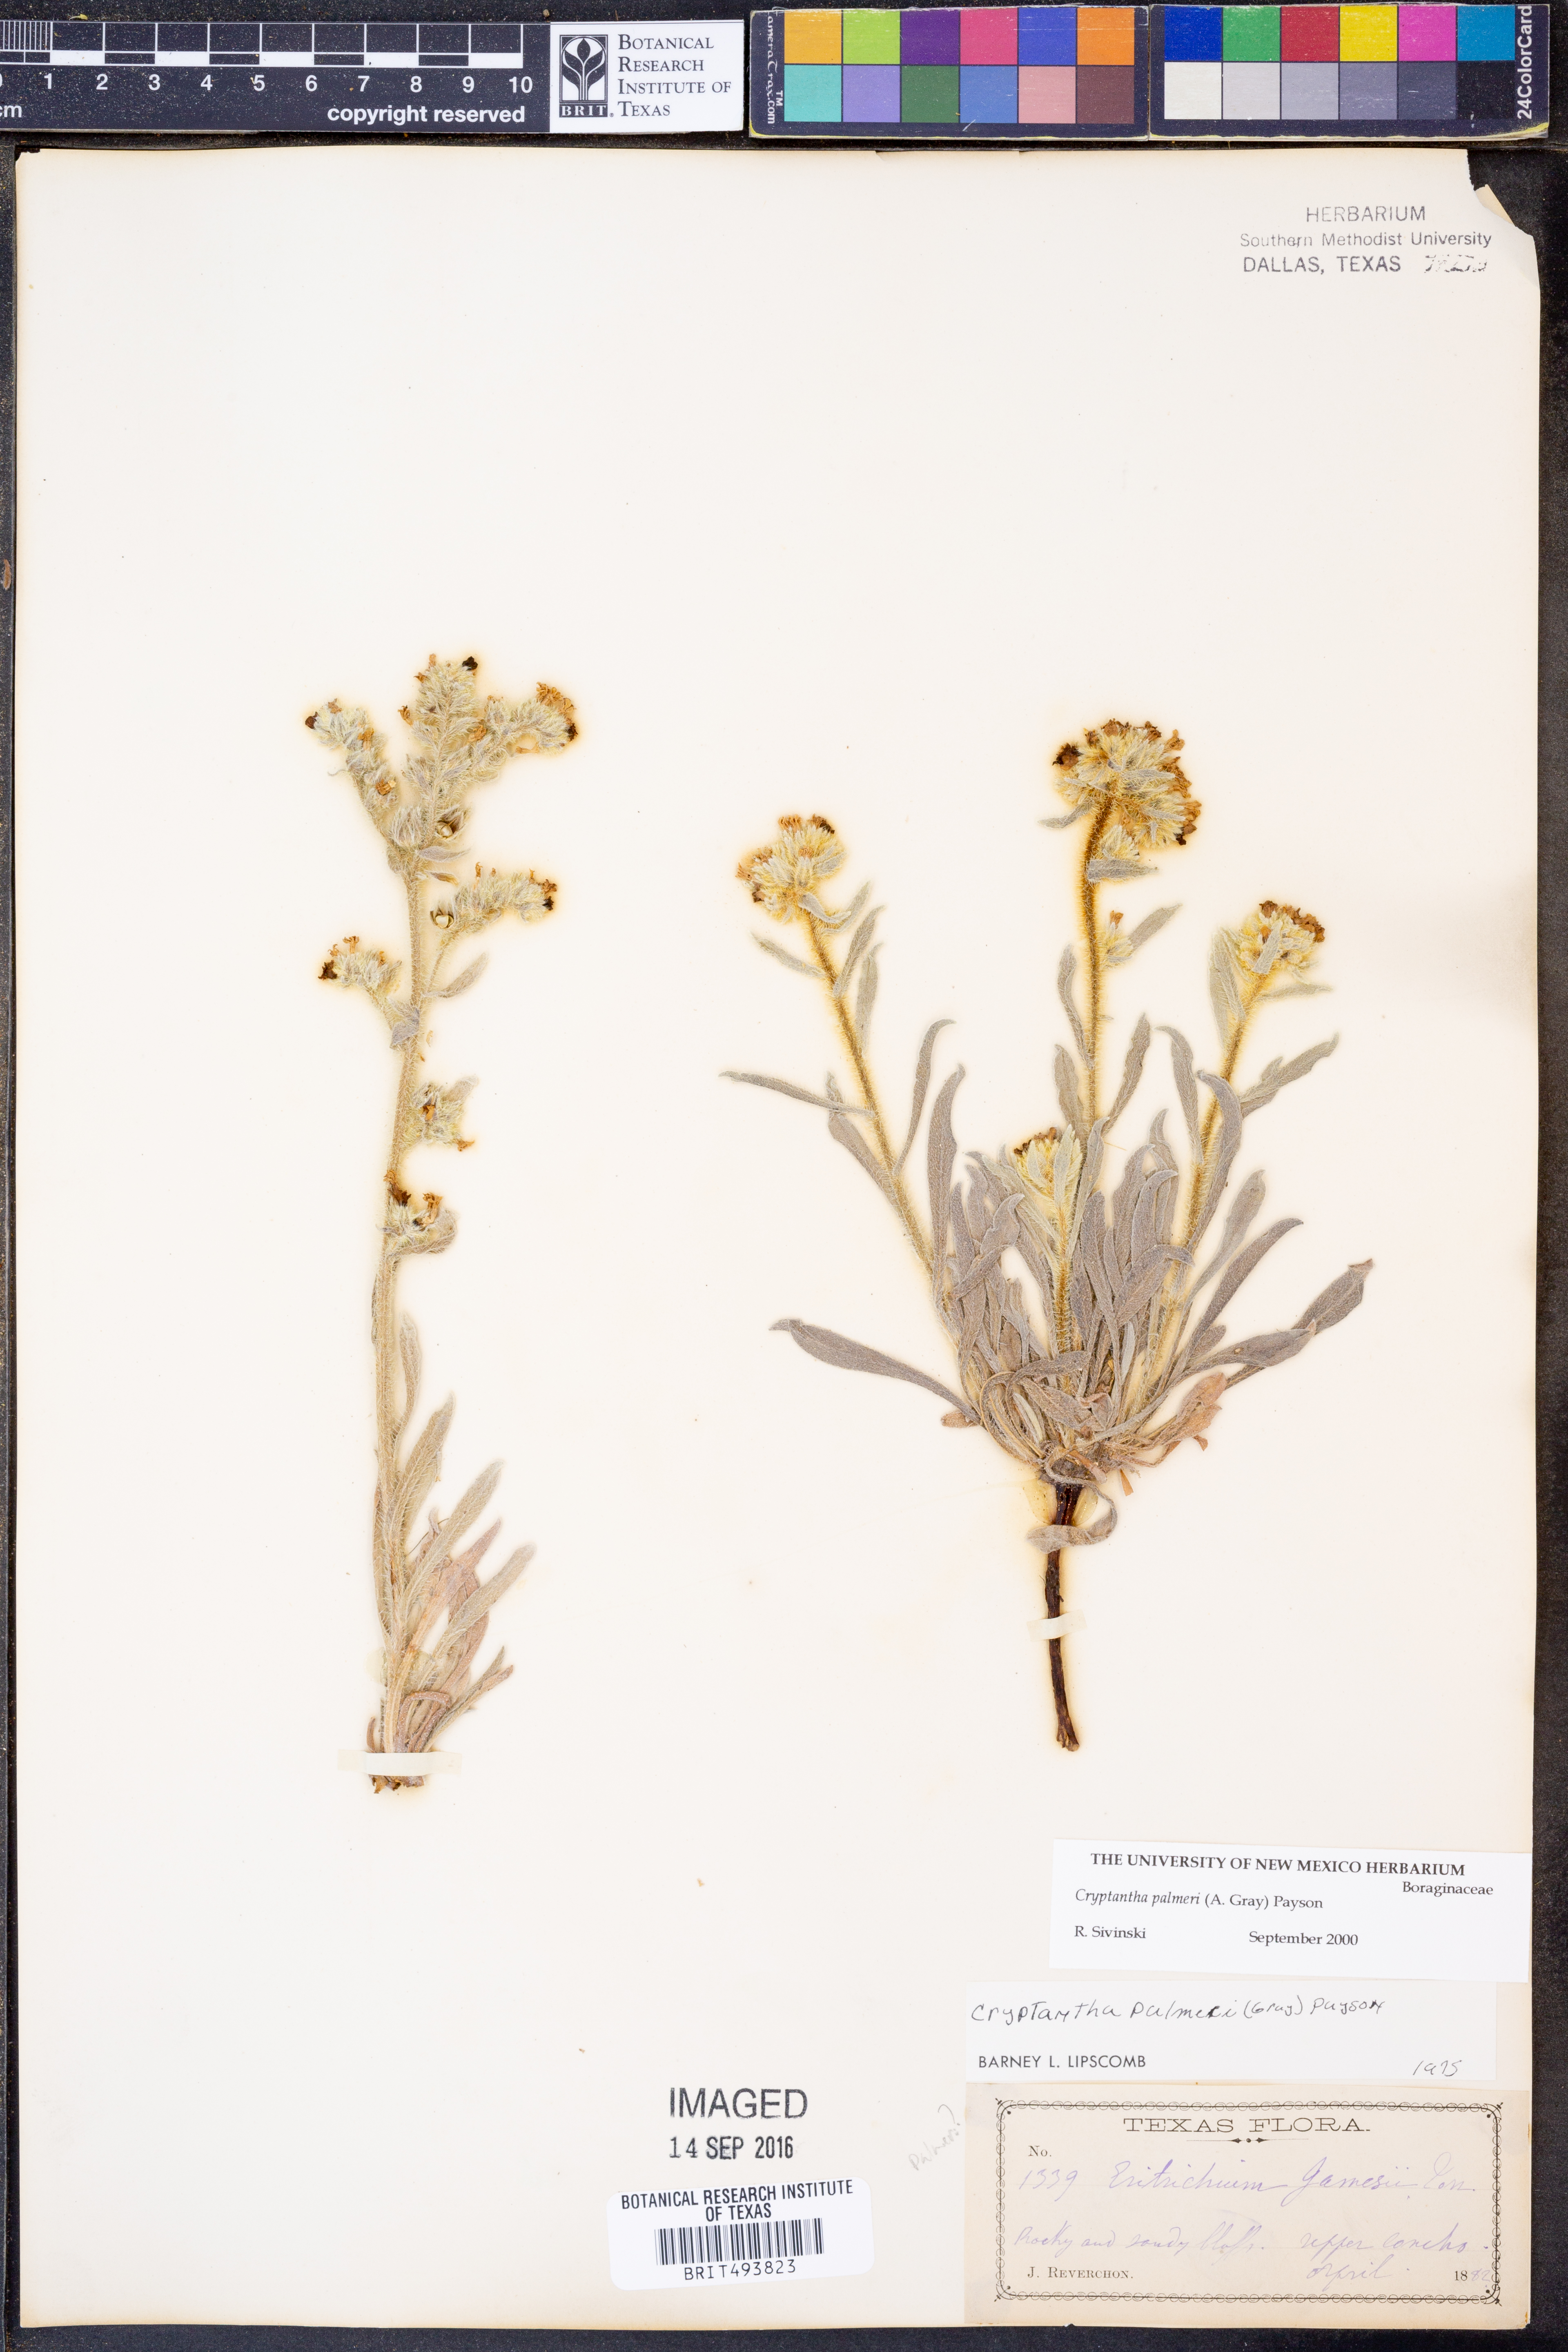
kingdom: Plantae
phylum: Tracheophyta
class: Magnoliopsida
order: Boraginales
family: Boraginaceae
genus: Oreocarya
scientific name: Oreocarya palmeri
